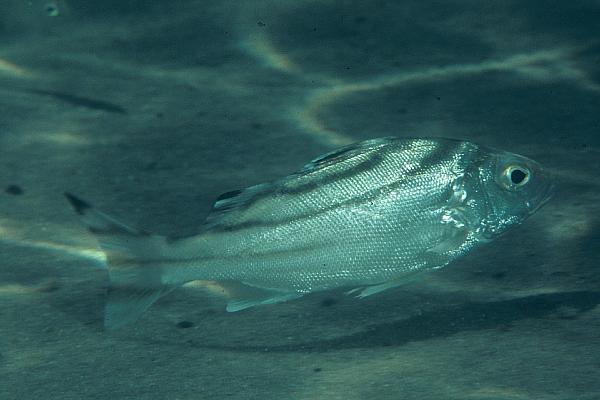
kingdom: Animalia
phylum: Chordata
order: Perciformes
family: Terapontidae
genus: Terapon
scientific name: Terapon jarbua
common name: Jarbua terapon
